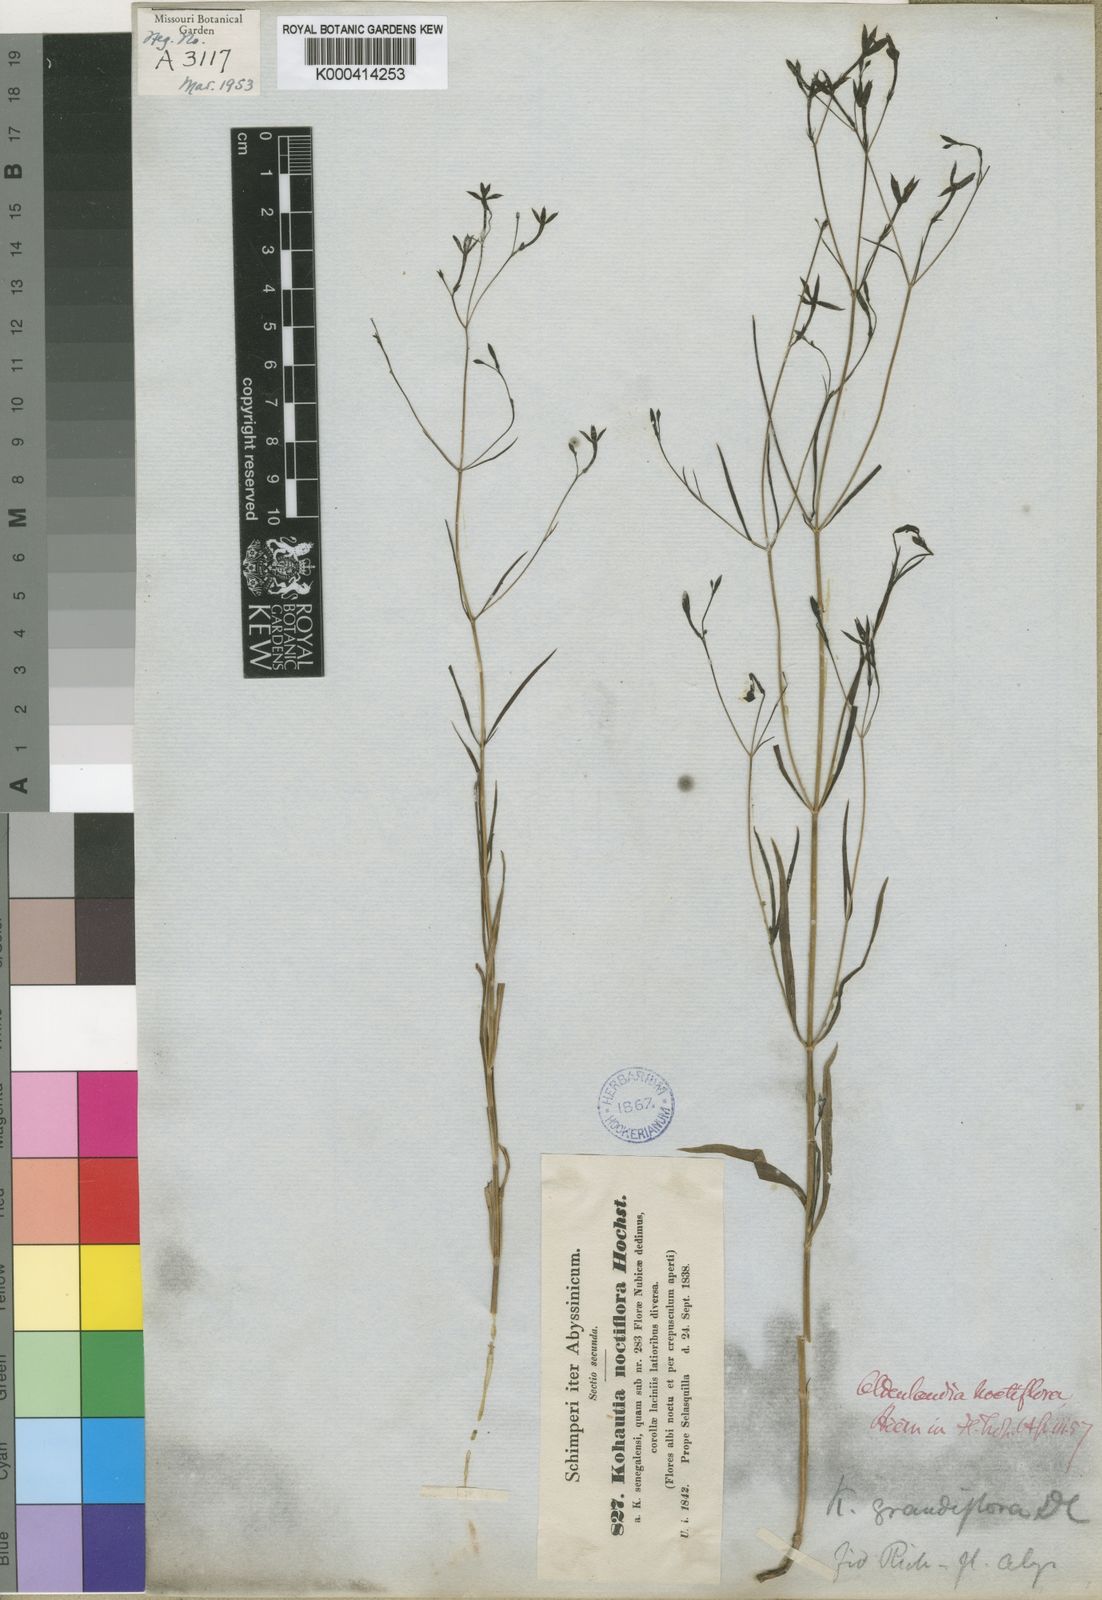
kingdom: Plantae
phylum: Tracheophyta
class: Magnoliopsida
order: Gentianales
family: Rubiaceae
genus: Kohautia
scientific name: Kohautia tenuis
